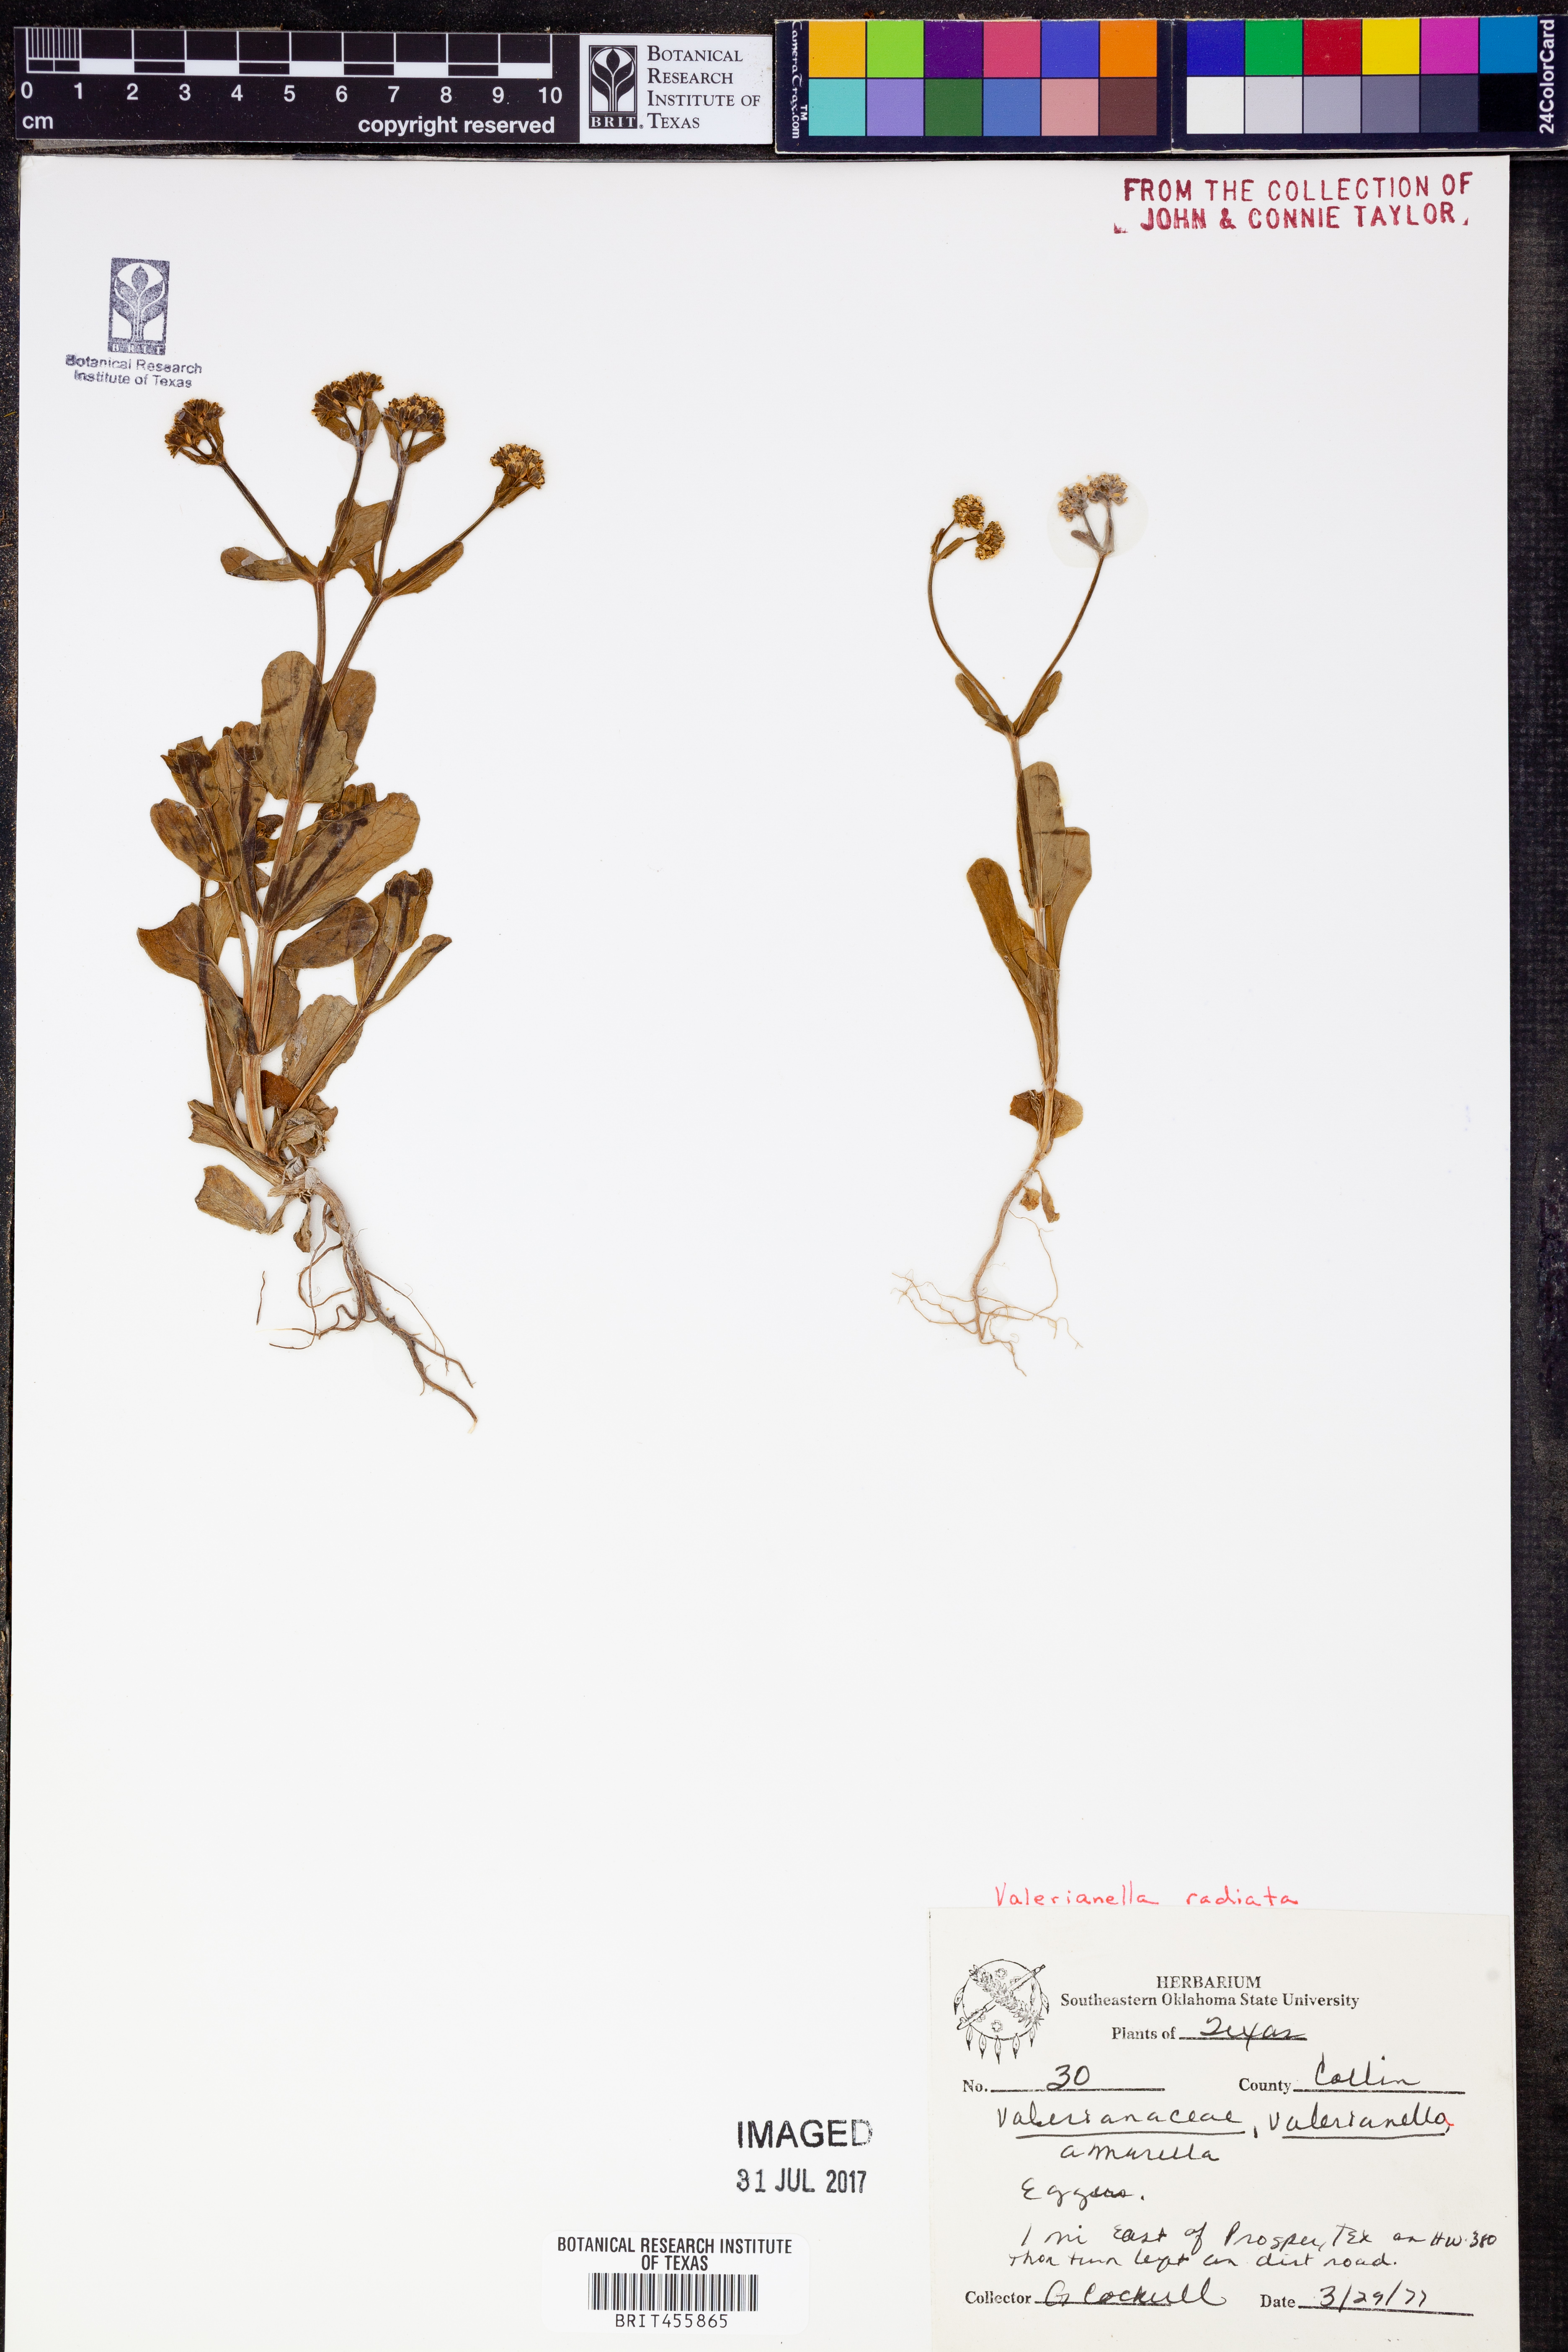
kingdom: Plantae
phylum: Tracheophyta
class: Magnoliopsida
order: Dipsacales
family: Caprifoliaceae
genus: Valerianella
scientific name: Valerianella radiata
